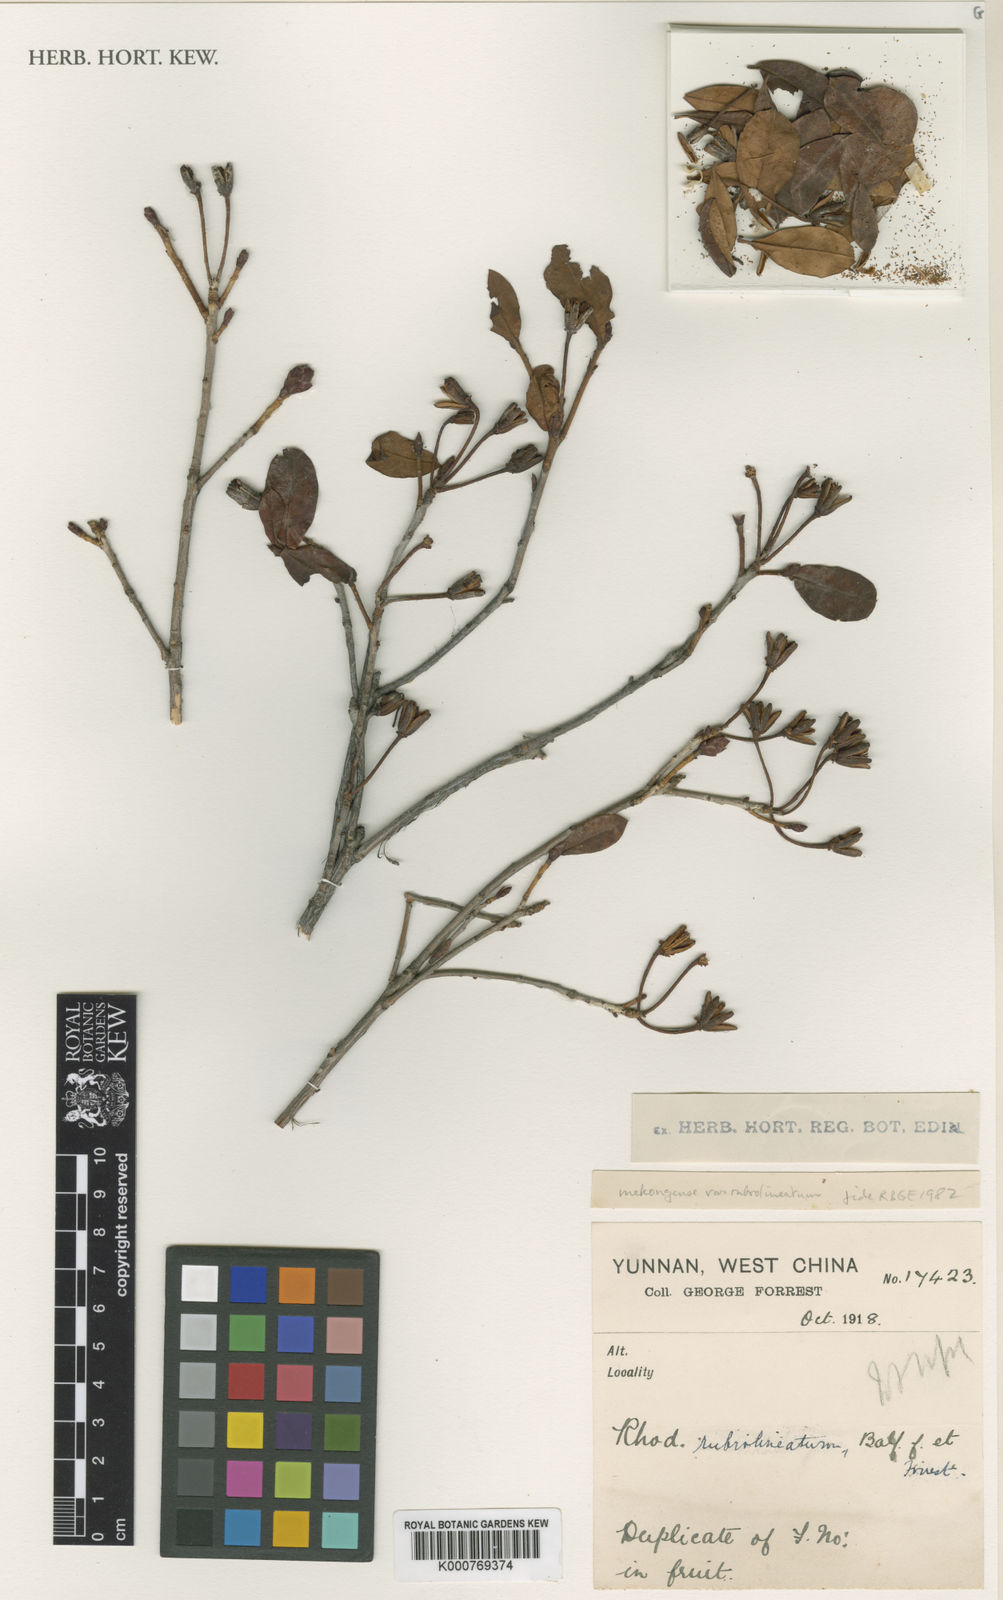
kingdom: Plantae
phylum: Tracheophyta
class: Magnoliopsida
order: Ericales
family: Ericaceae
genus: Rhododendron
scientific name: Rhododendron mekongense
